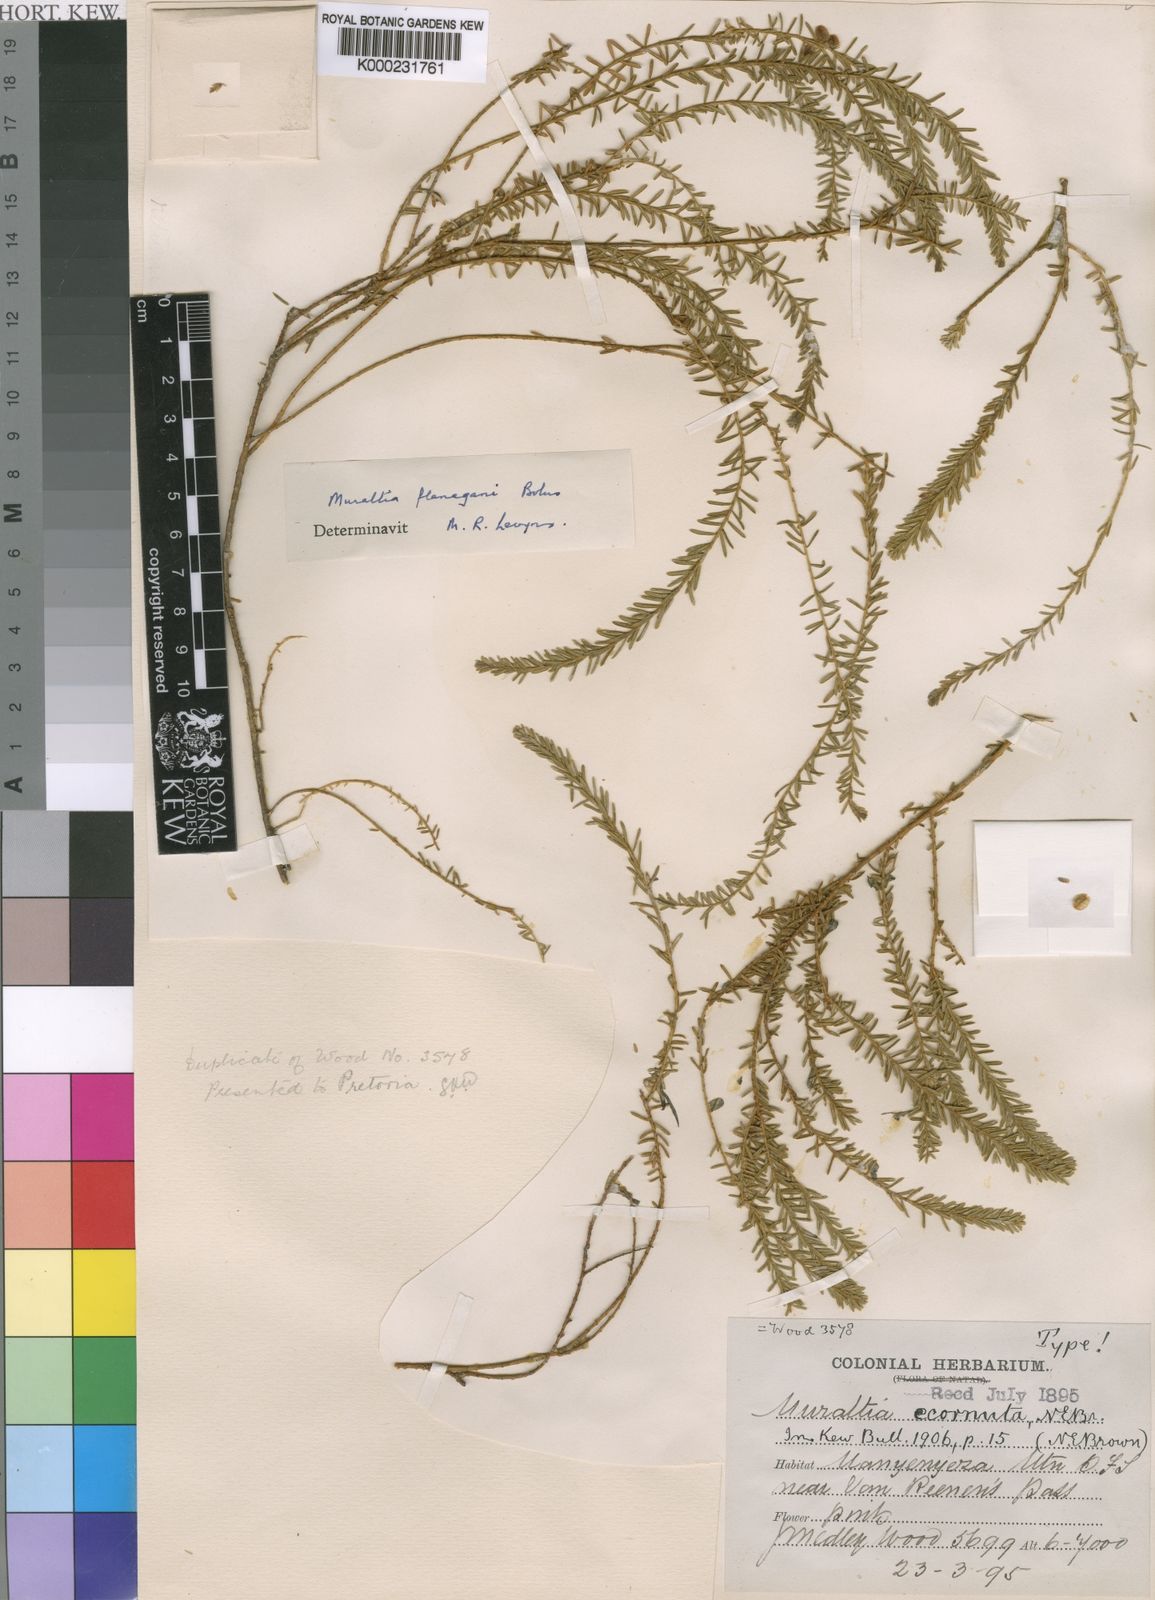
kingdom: Plantae
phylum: Tracheophyta
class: Magnoliopsida
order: Fabales
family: Polygalaceae
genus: Muraltia
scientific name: Muraltia flanaganii
